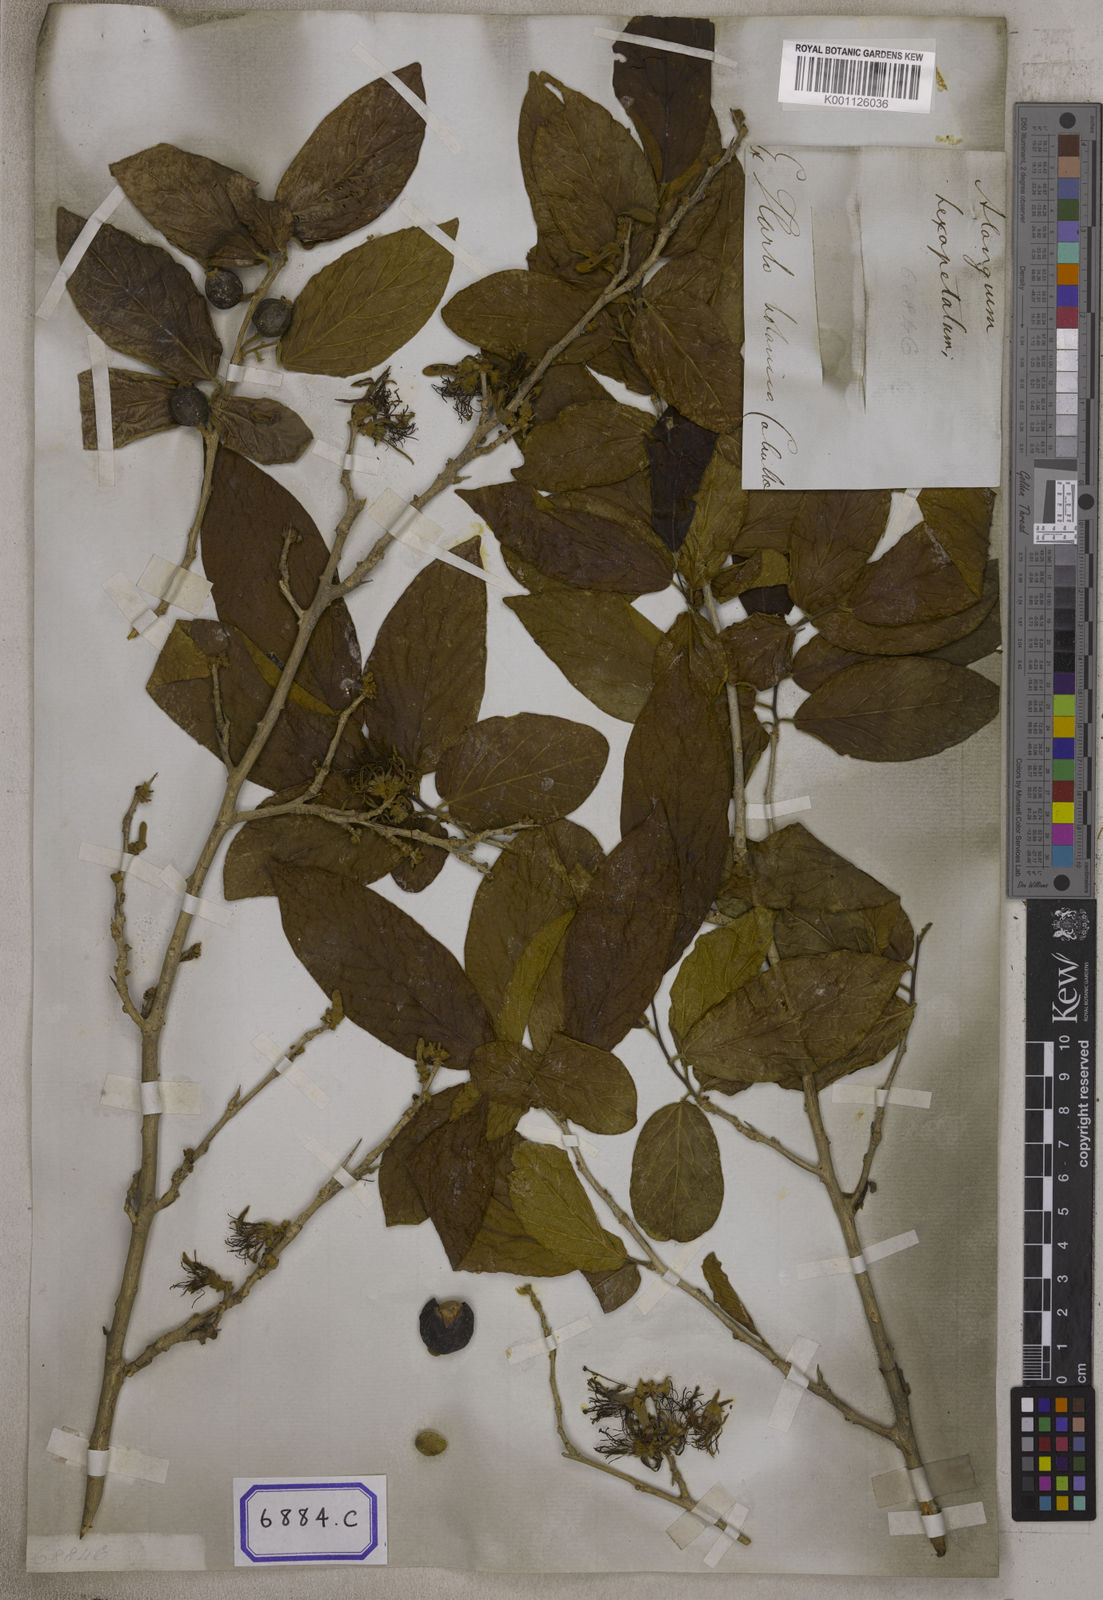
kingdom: Plantae
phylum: Tracheophyta
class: Magnoliopsida
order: Cornales
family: Cornaceae
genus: Alangium
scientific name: Alangium hexapetalum
